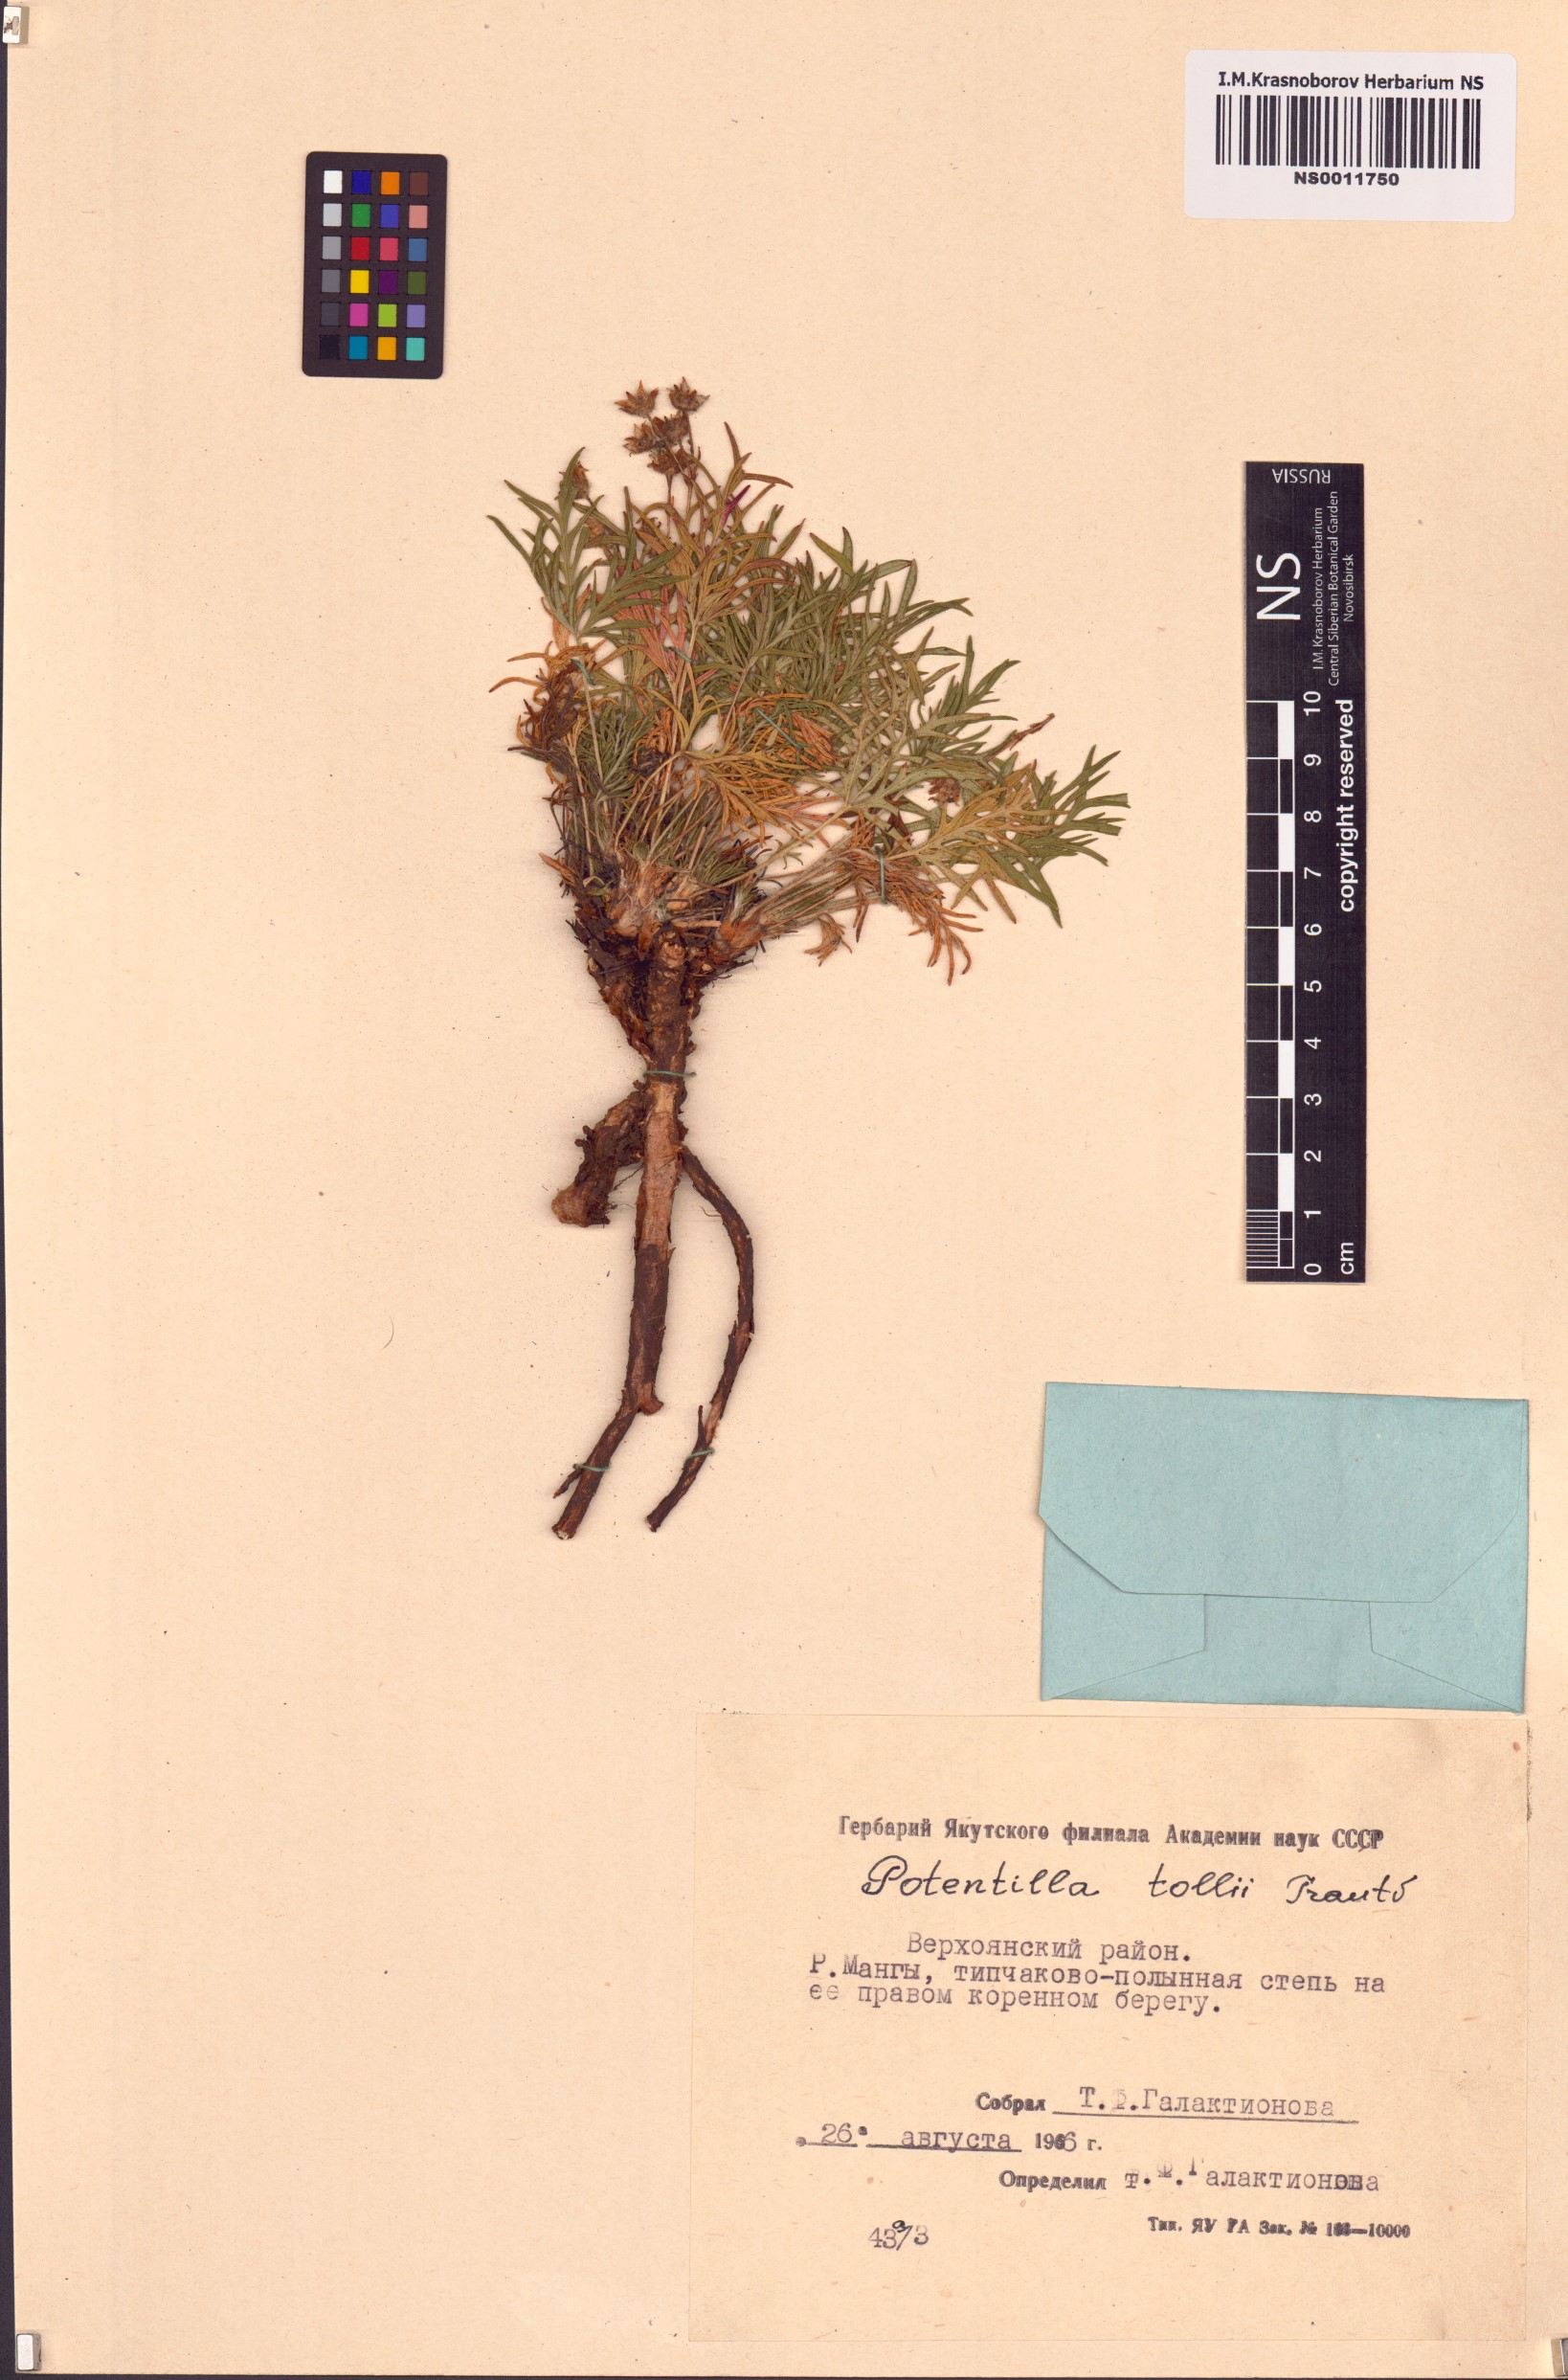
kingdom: Plantae
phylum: Tracheophyta
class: Magnoliopsida
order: Rosales
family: Rosaceae
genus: Potentilla
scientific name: Potentilla tollii
